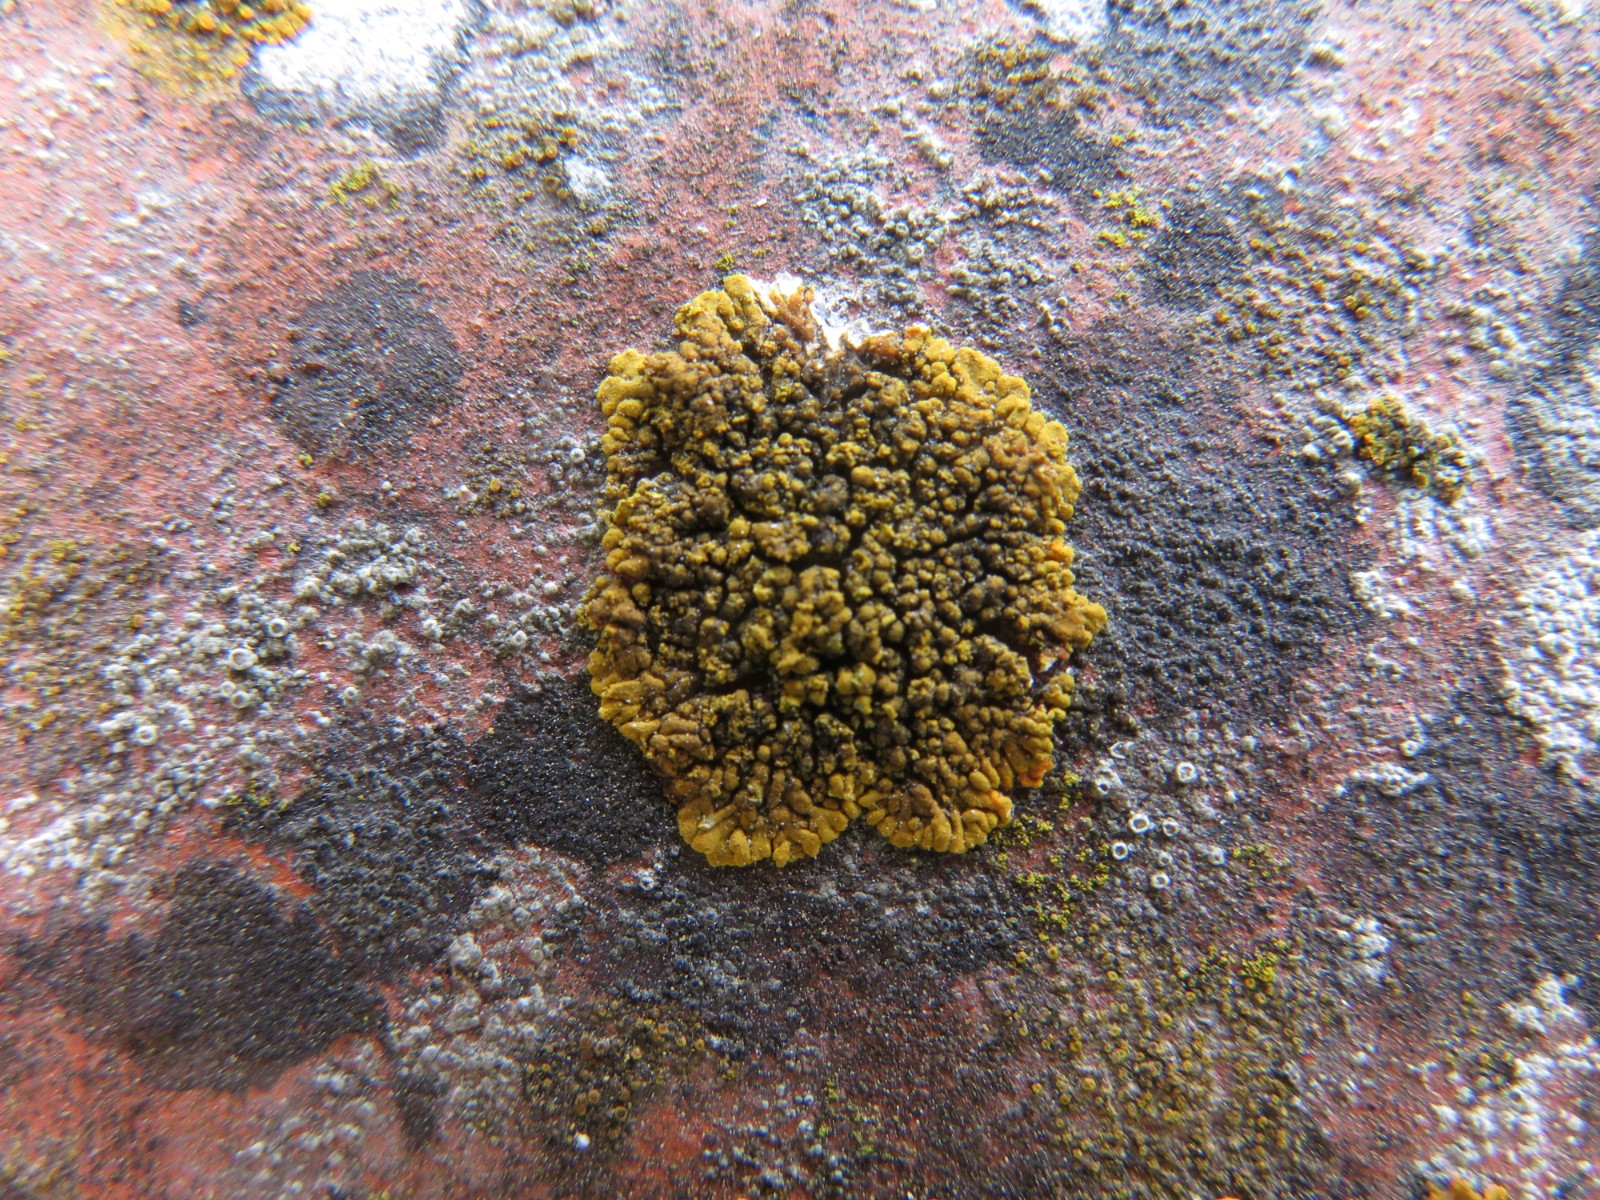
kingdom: Fungi
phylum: Ascomycota
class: Lecanoromycetes
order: Teloschistales
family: Teloschistaceae
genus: Calogaya
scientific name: Calogaya decipiens
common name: knudret orangelav
